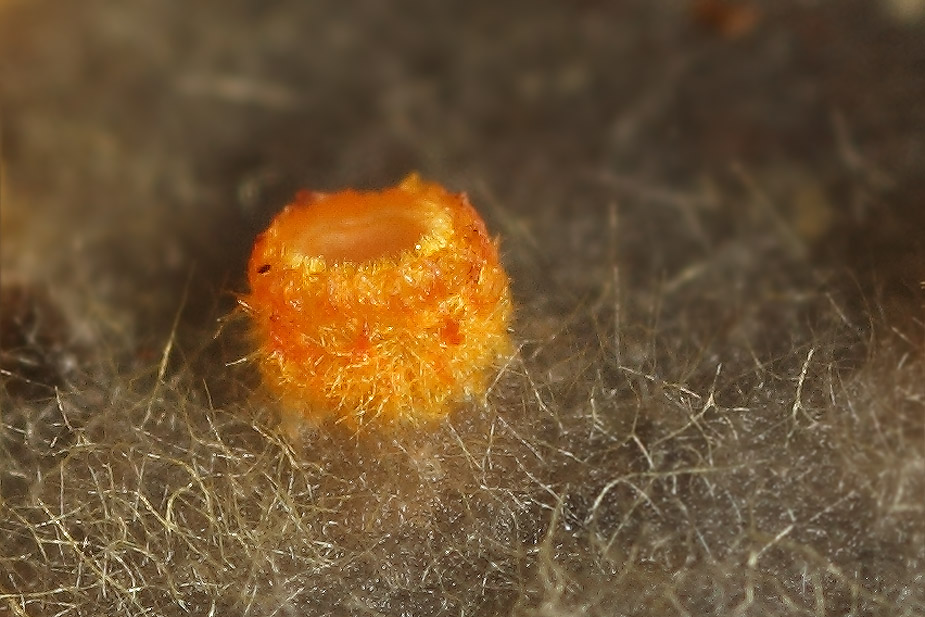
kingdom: Fungi
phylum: Ascomycota
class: Leotiomycetes
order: Helotiales
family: Arachnopezizaceae
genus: Arachnopeziza
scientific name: Arachnopeziza aurelia
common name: flamme-spindskive
